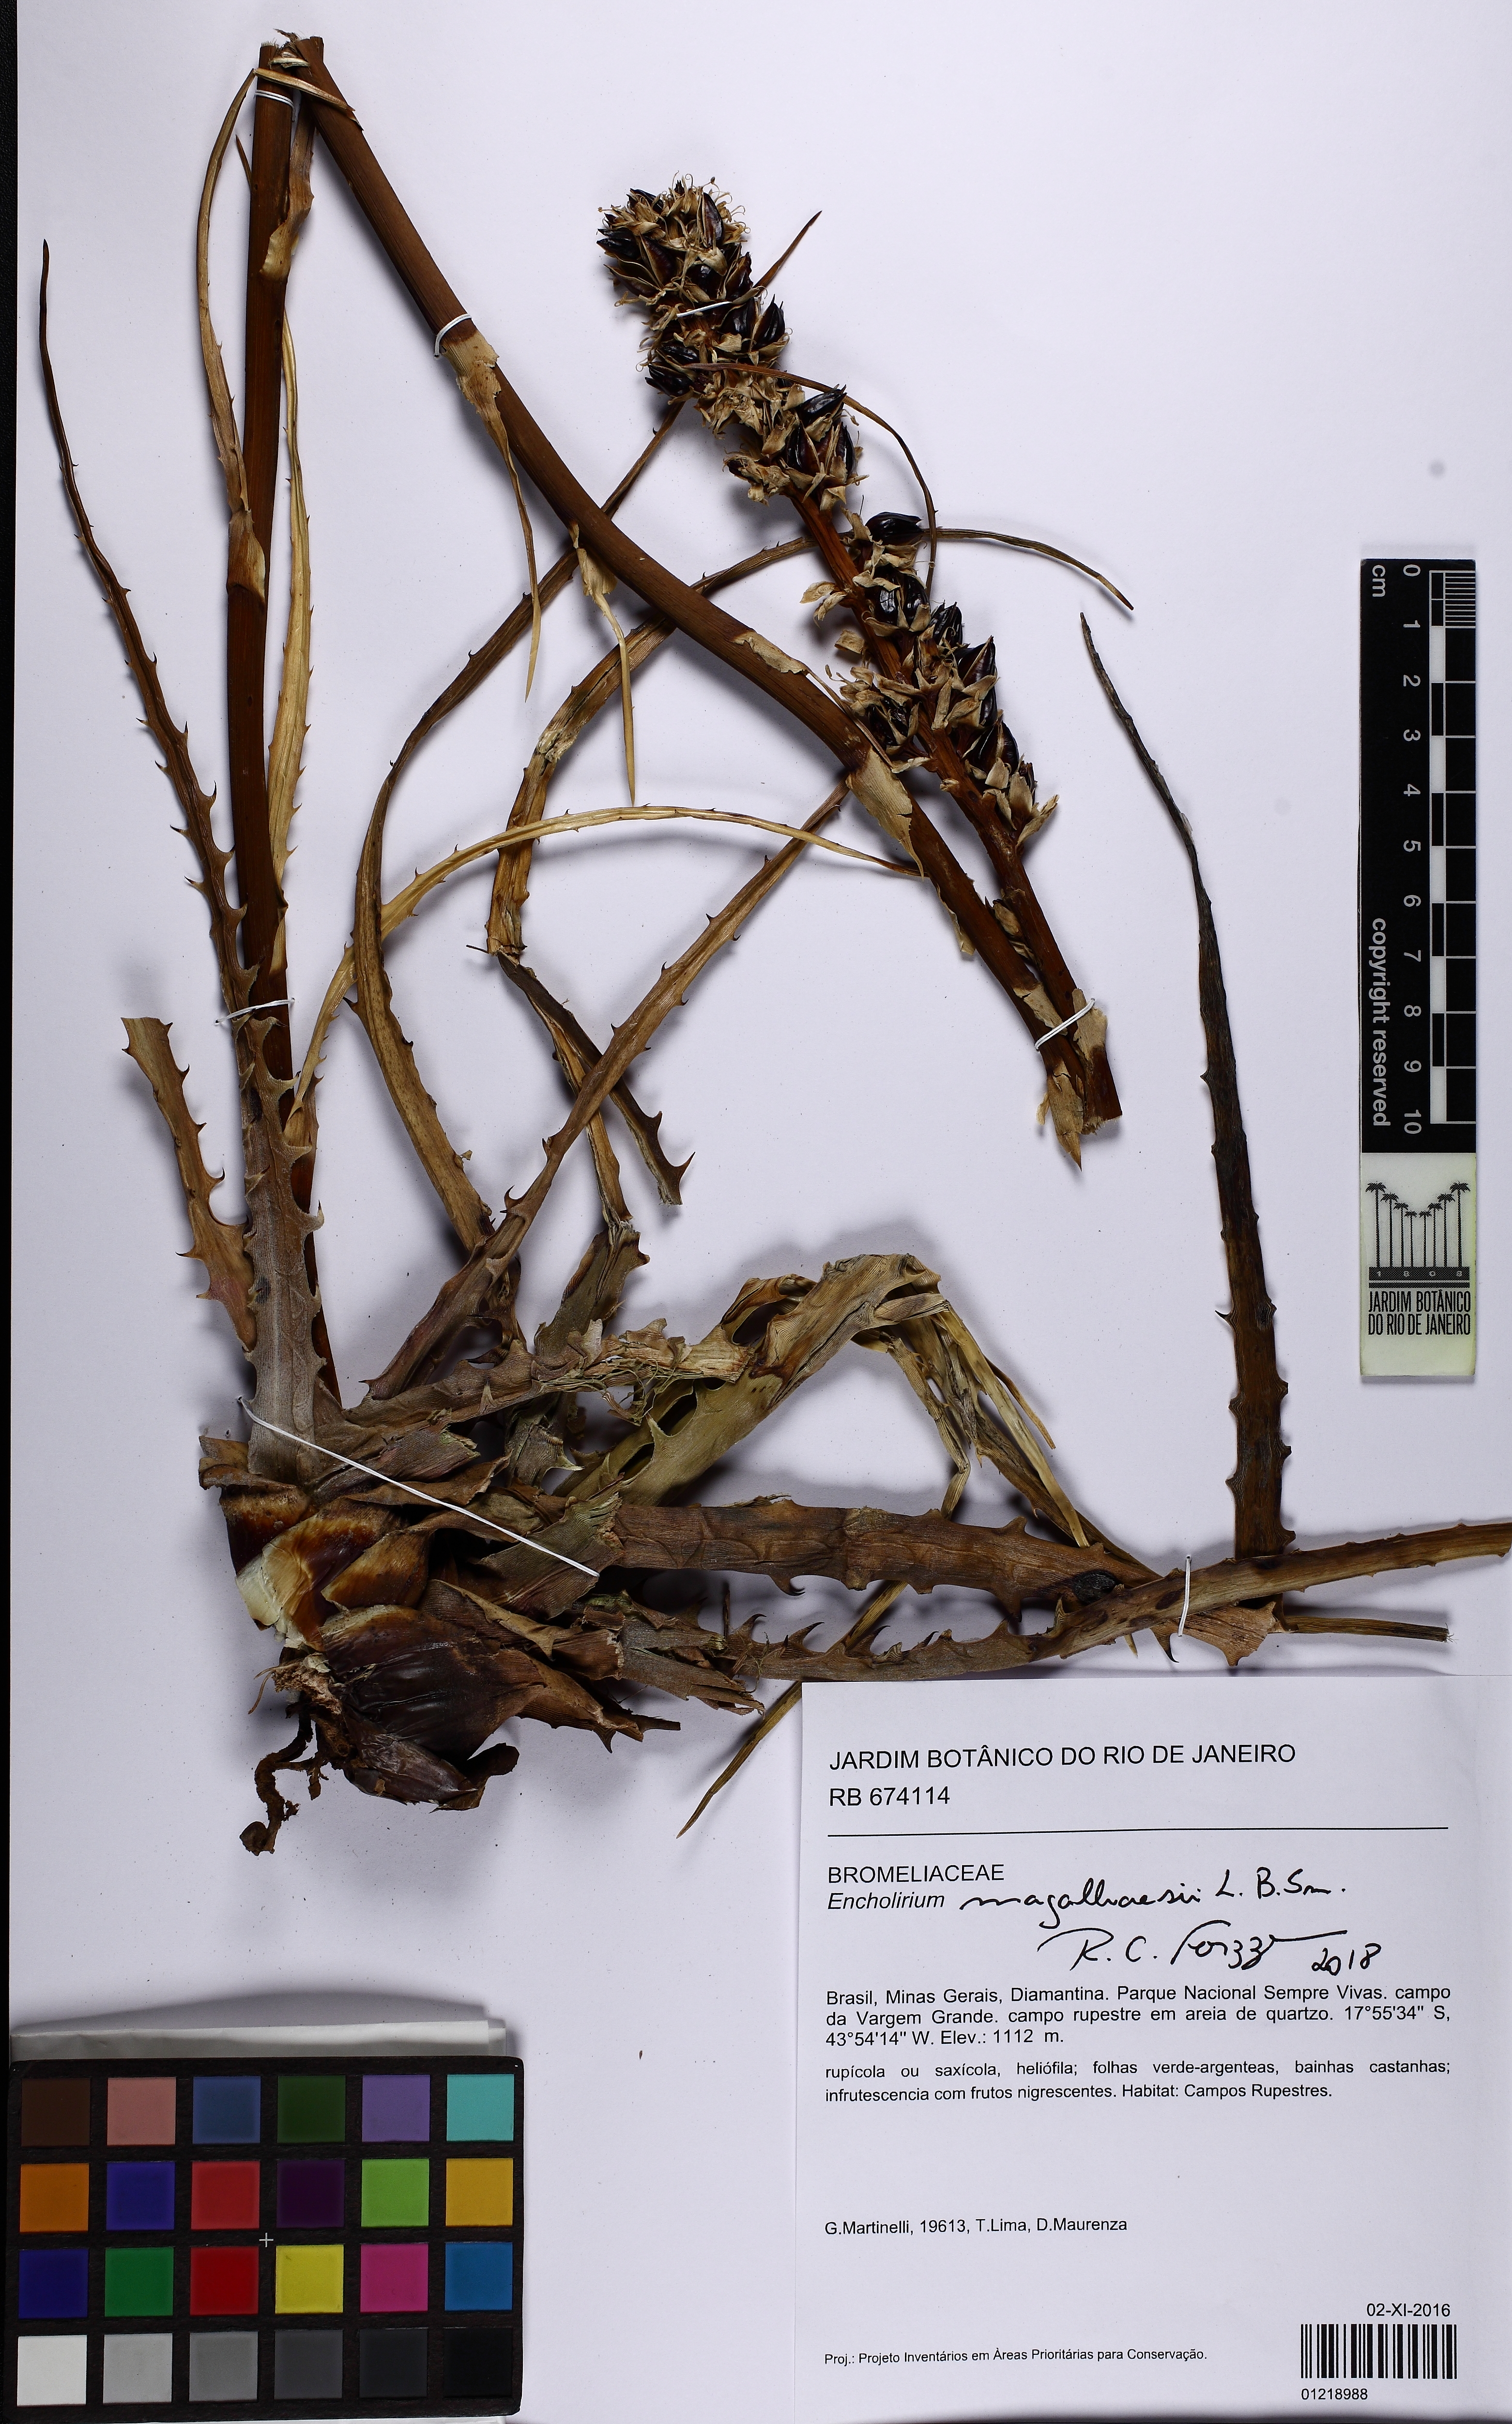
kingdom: Plantae
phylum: Tracheophyta
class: Liliopsida
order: Poales
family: Bromeliaceae
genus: Encholirium
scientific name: Encholirium magalhaesii
